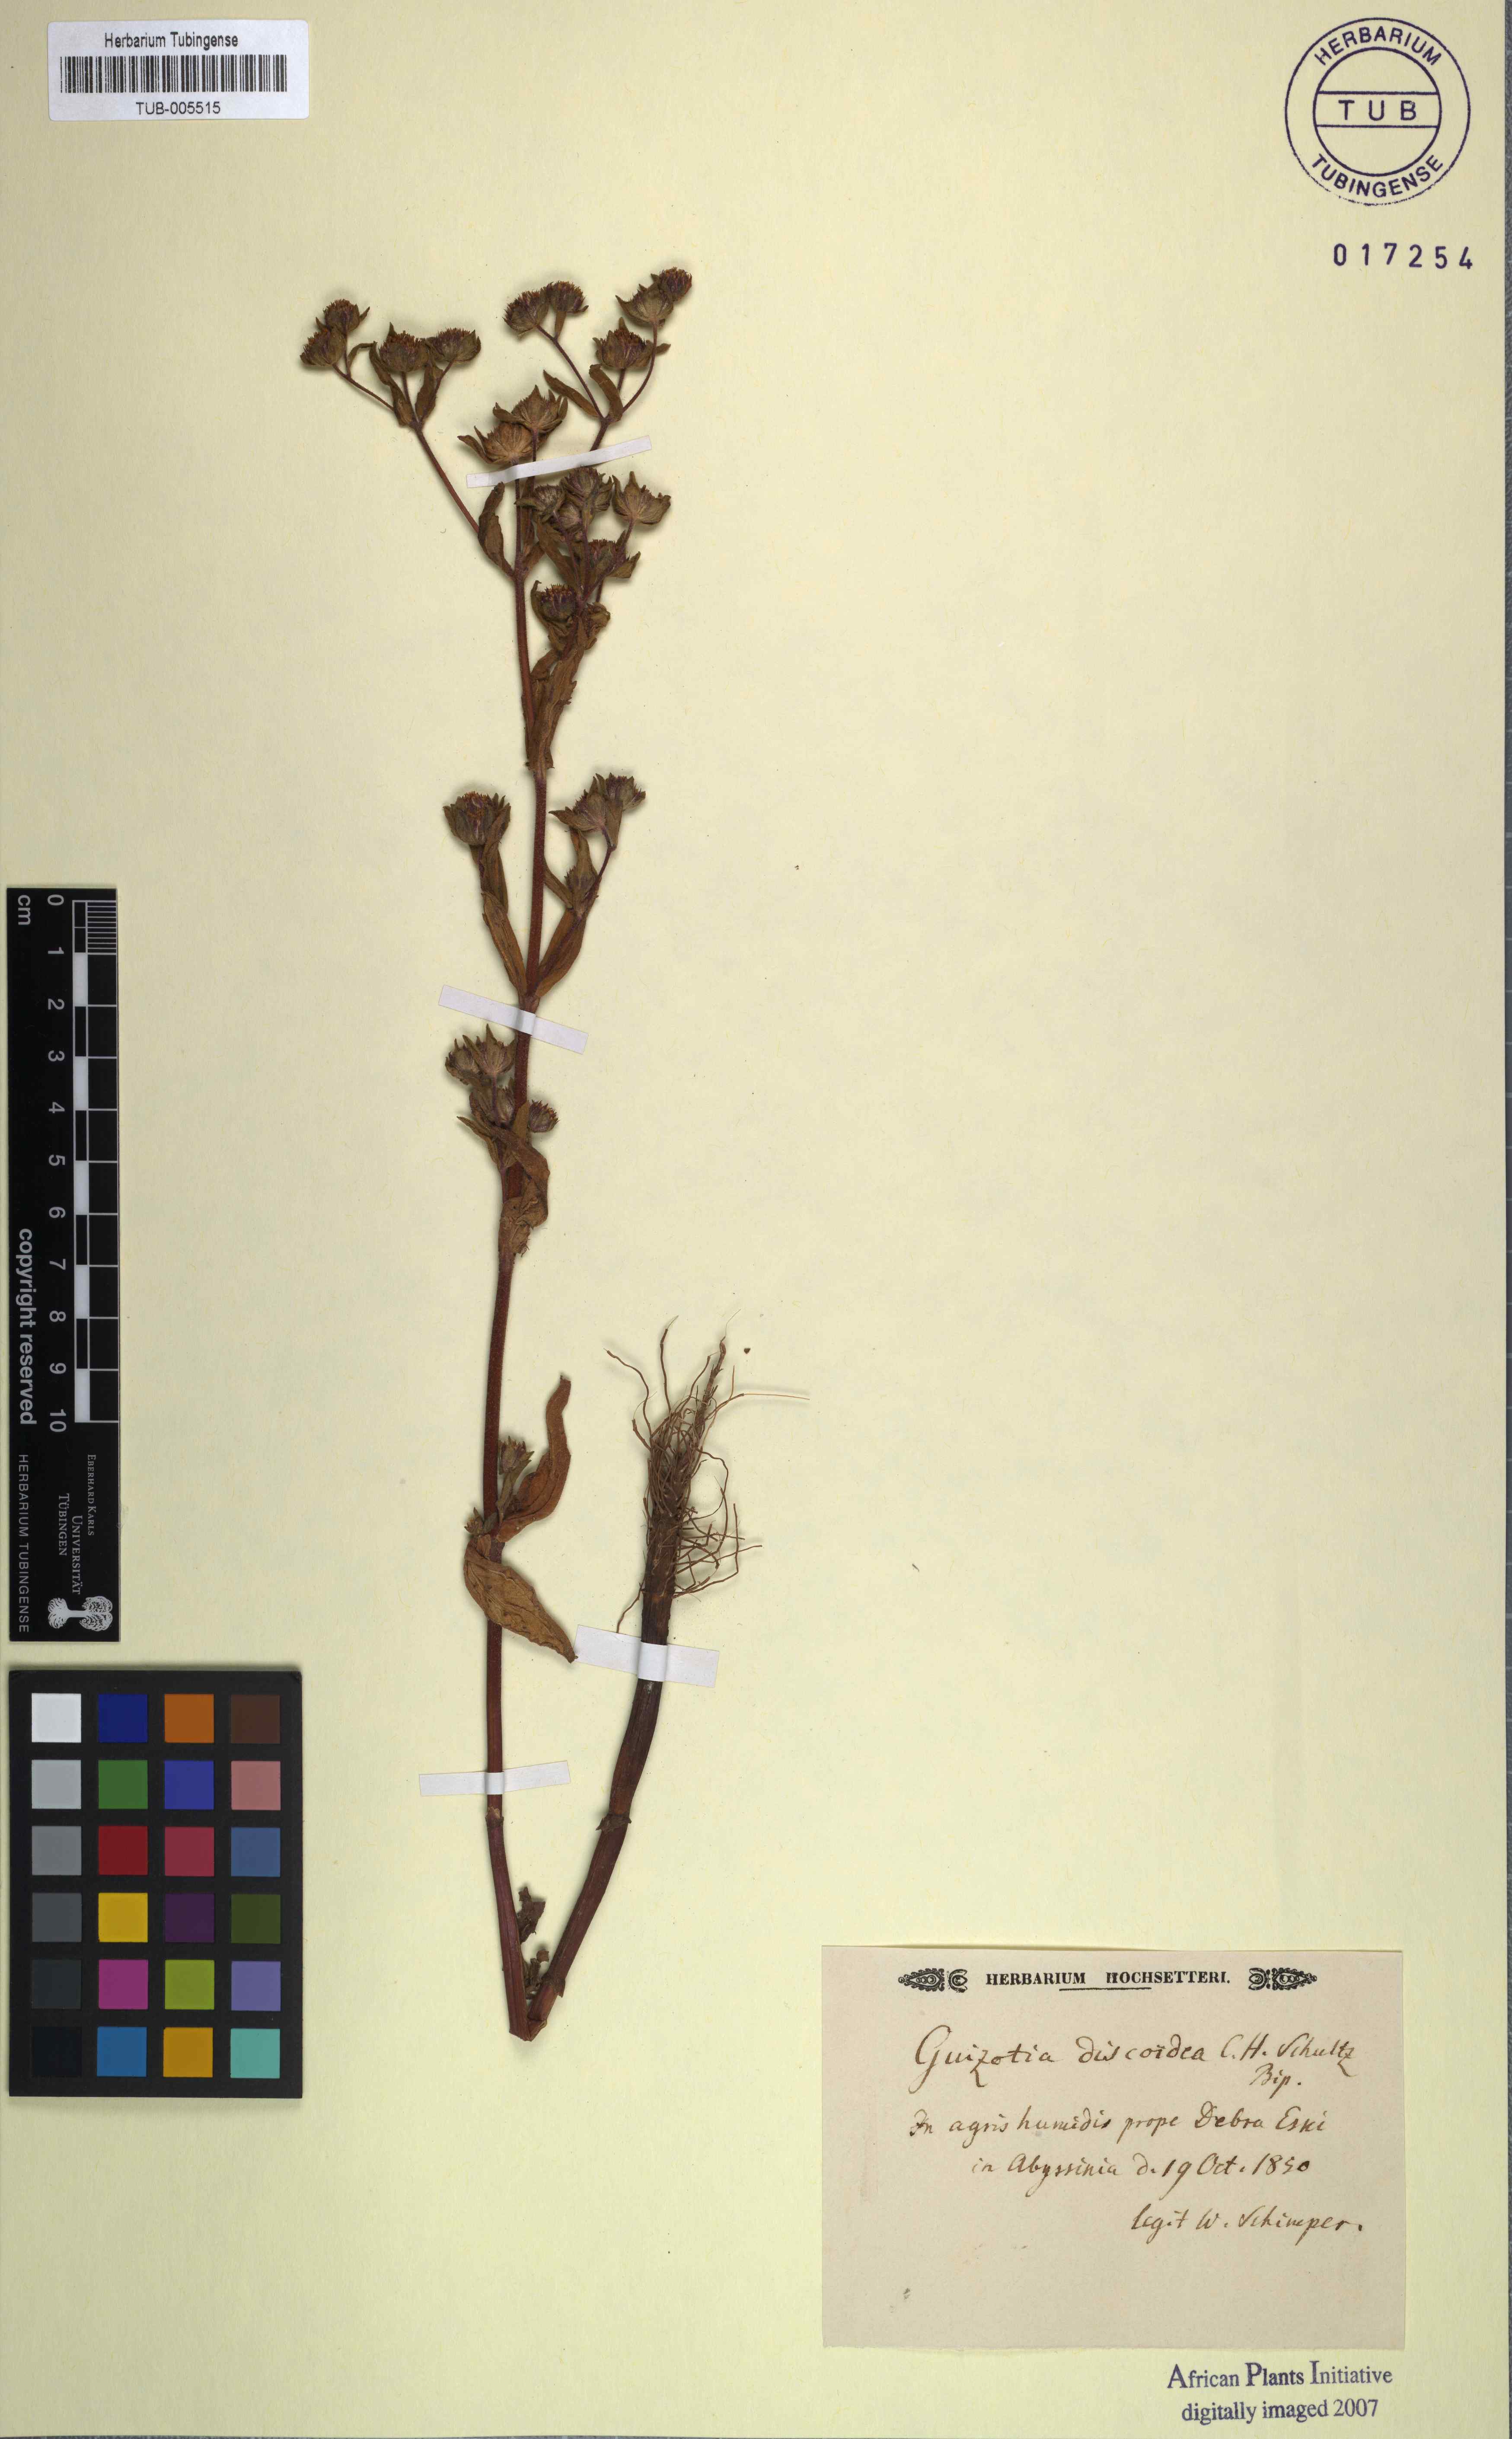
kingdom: Plantae
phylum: Tracheophyta
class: Magnoliopsida
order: Asterales
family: Asteraceae
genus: Micractis
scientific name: Micractis discoidea
